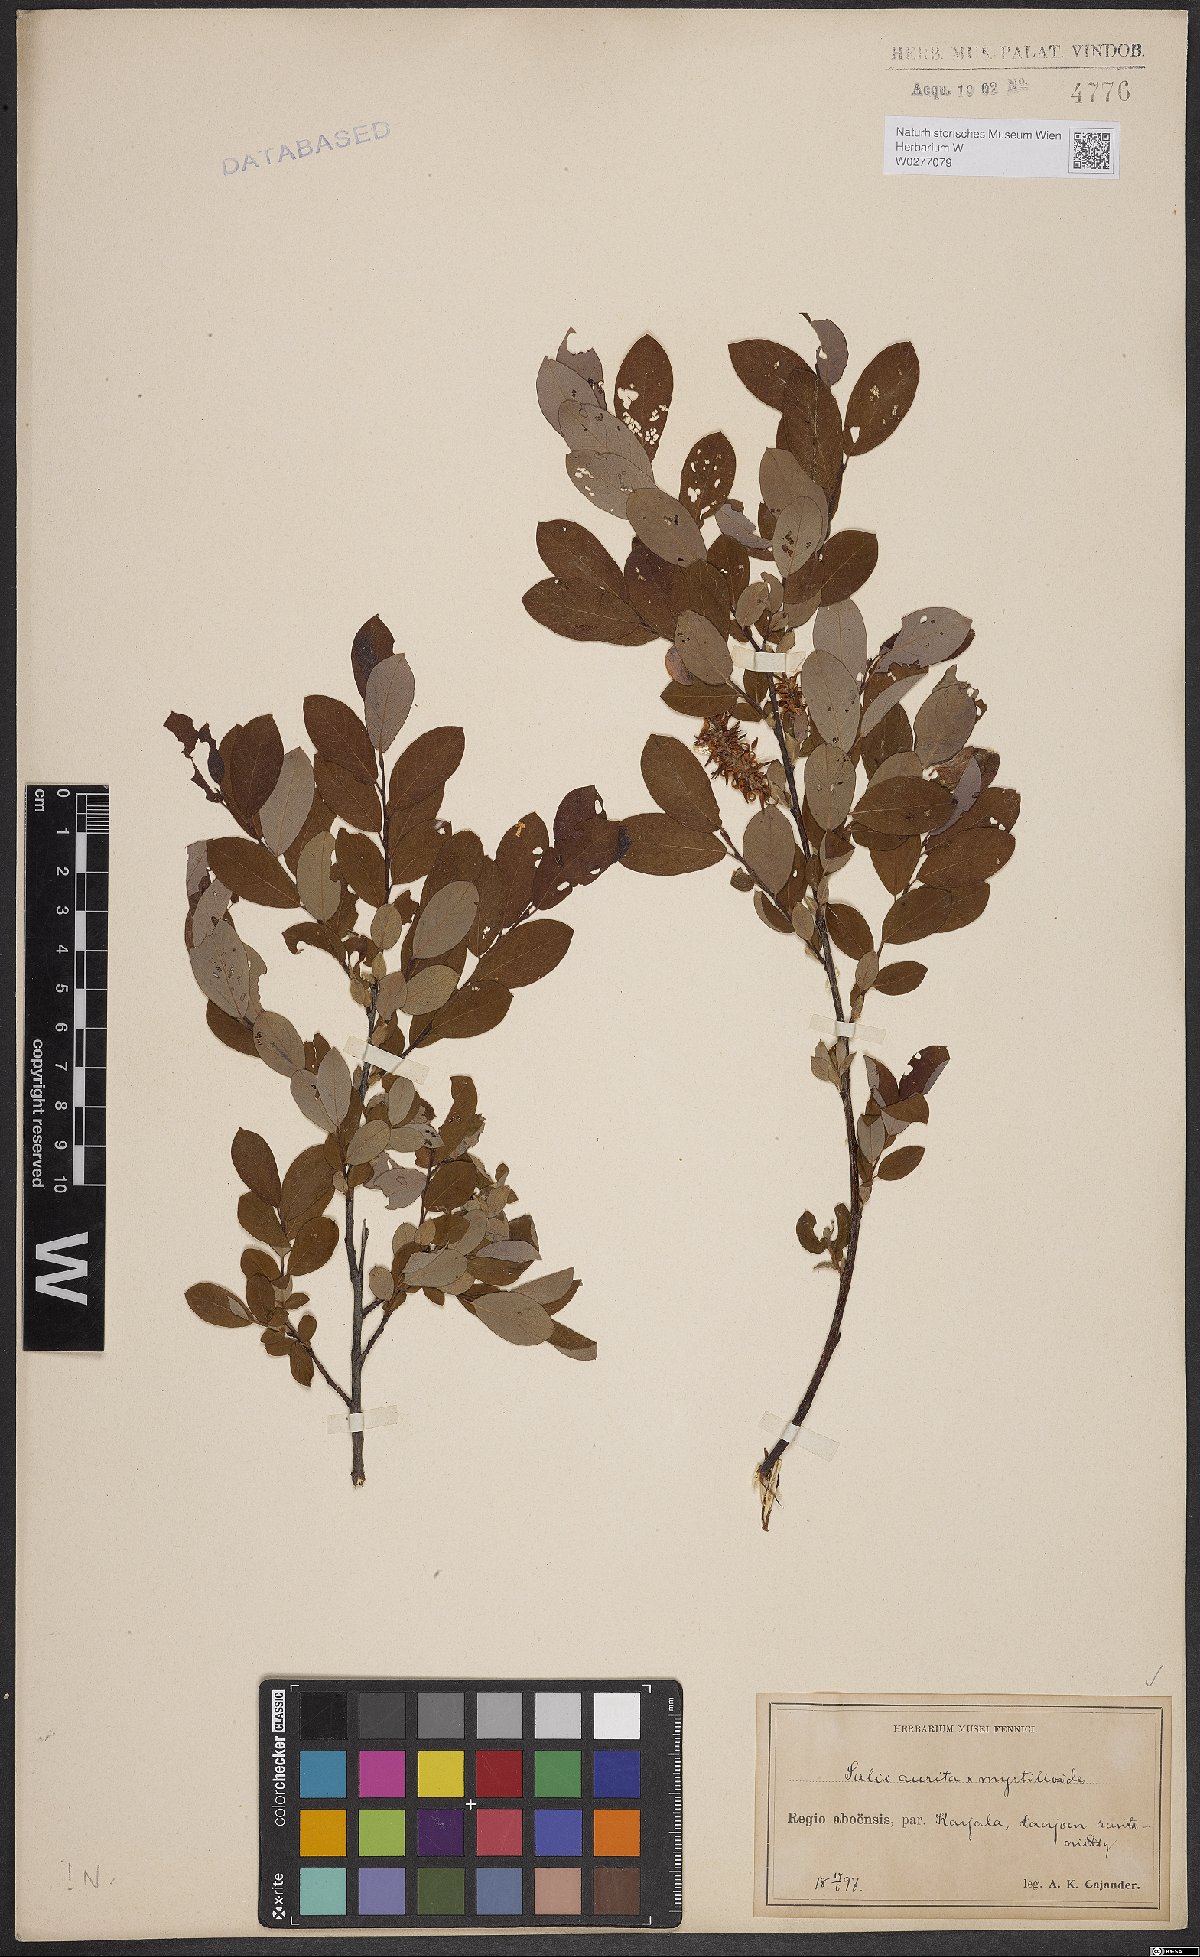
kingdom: Plantae
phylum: Tracheophyta
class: Magnoliopsida
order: Malpighiales
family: Salicaceae
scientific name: Salicaceae
